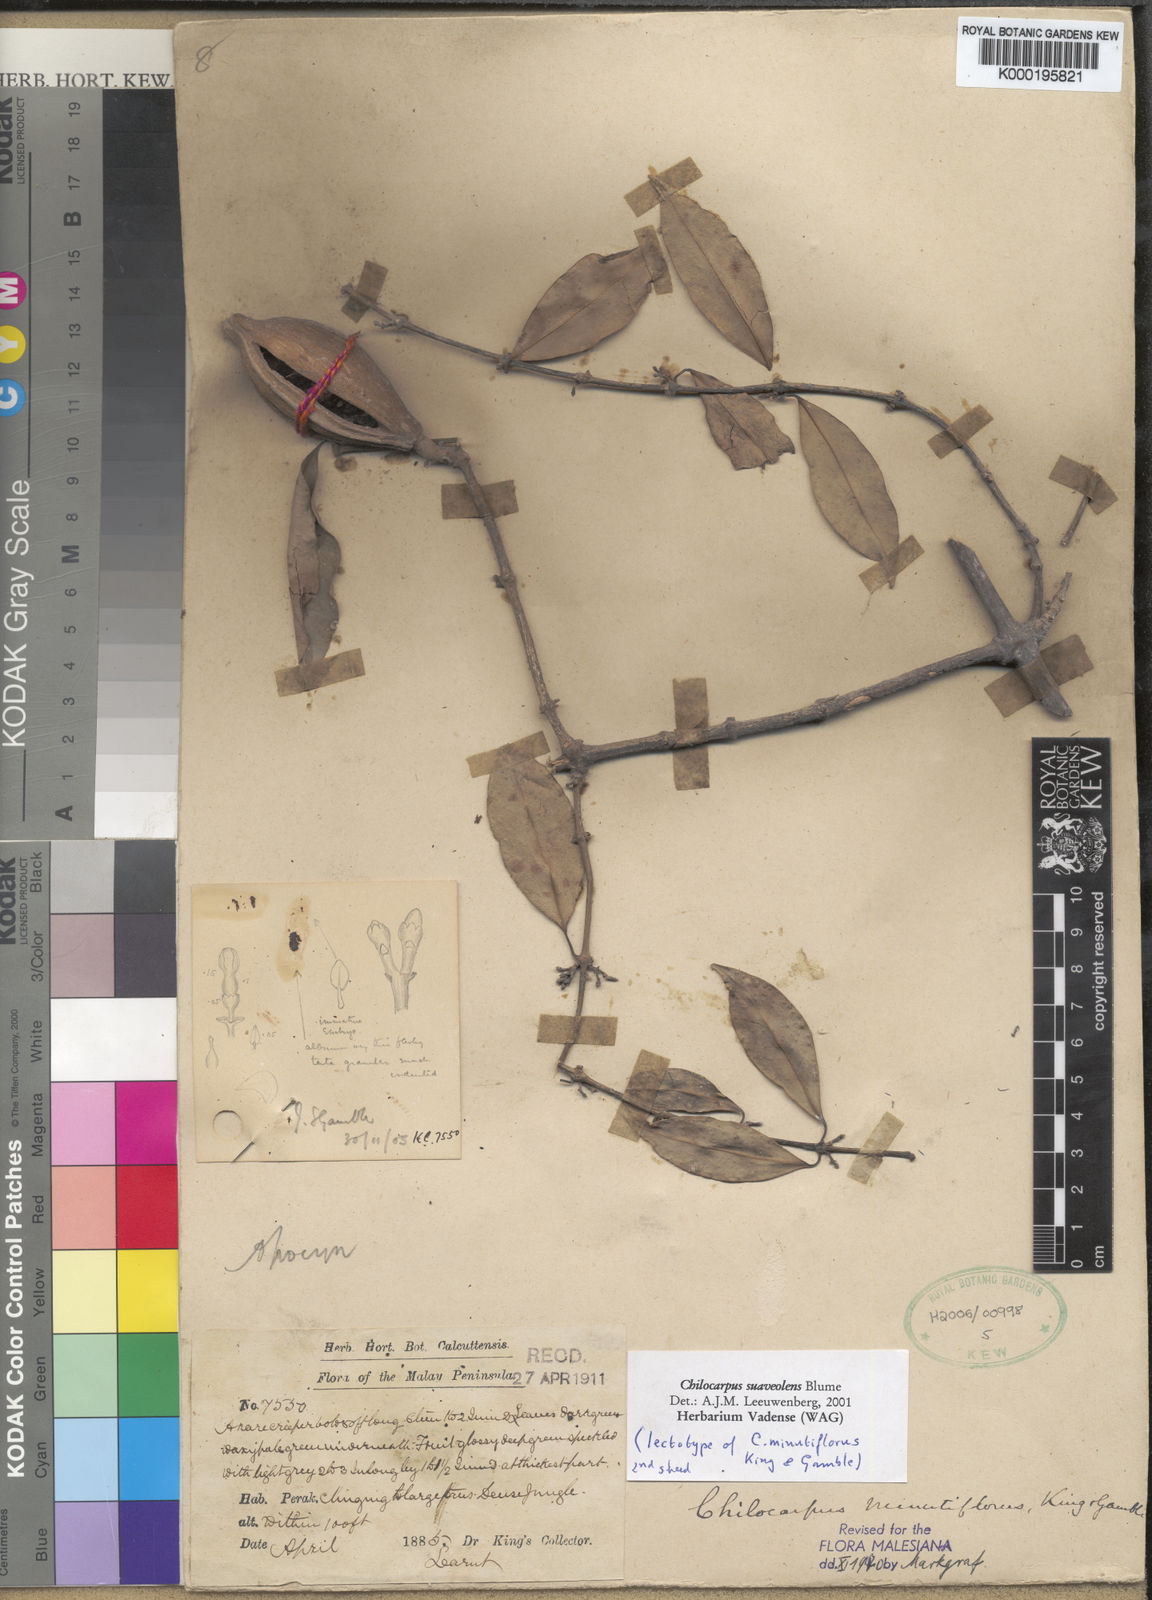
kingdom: Plantae
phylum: Tracheophyta
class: Magnoliopsida
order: Gentianales
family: Apocynaceae
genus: Chilocarpus
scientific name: Chilocarpus denudatus
